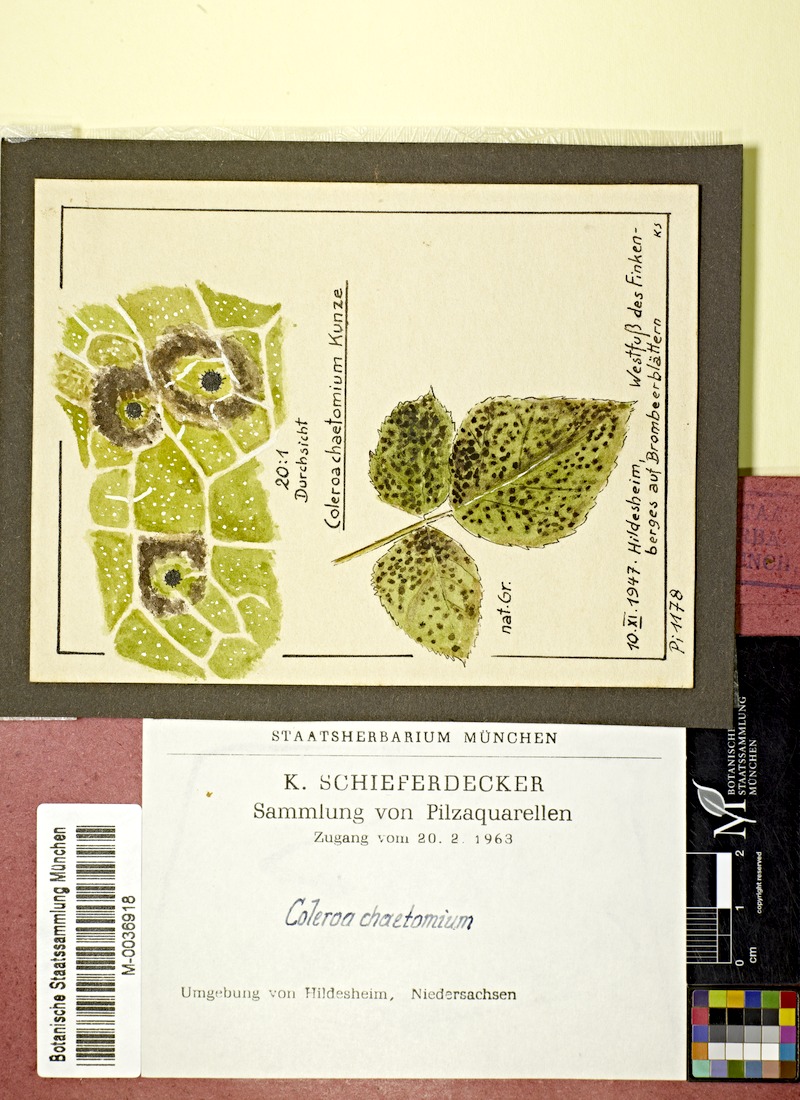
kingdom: Plantae
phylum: Tracheophyta
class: Magnoliopsida
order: Rosales
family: Rosaceae
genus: Rubus
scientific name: Rubus
